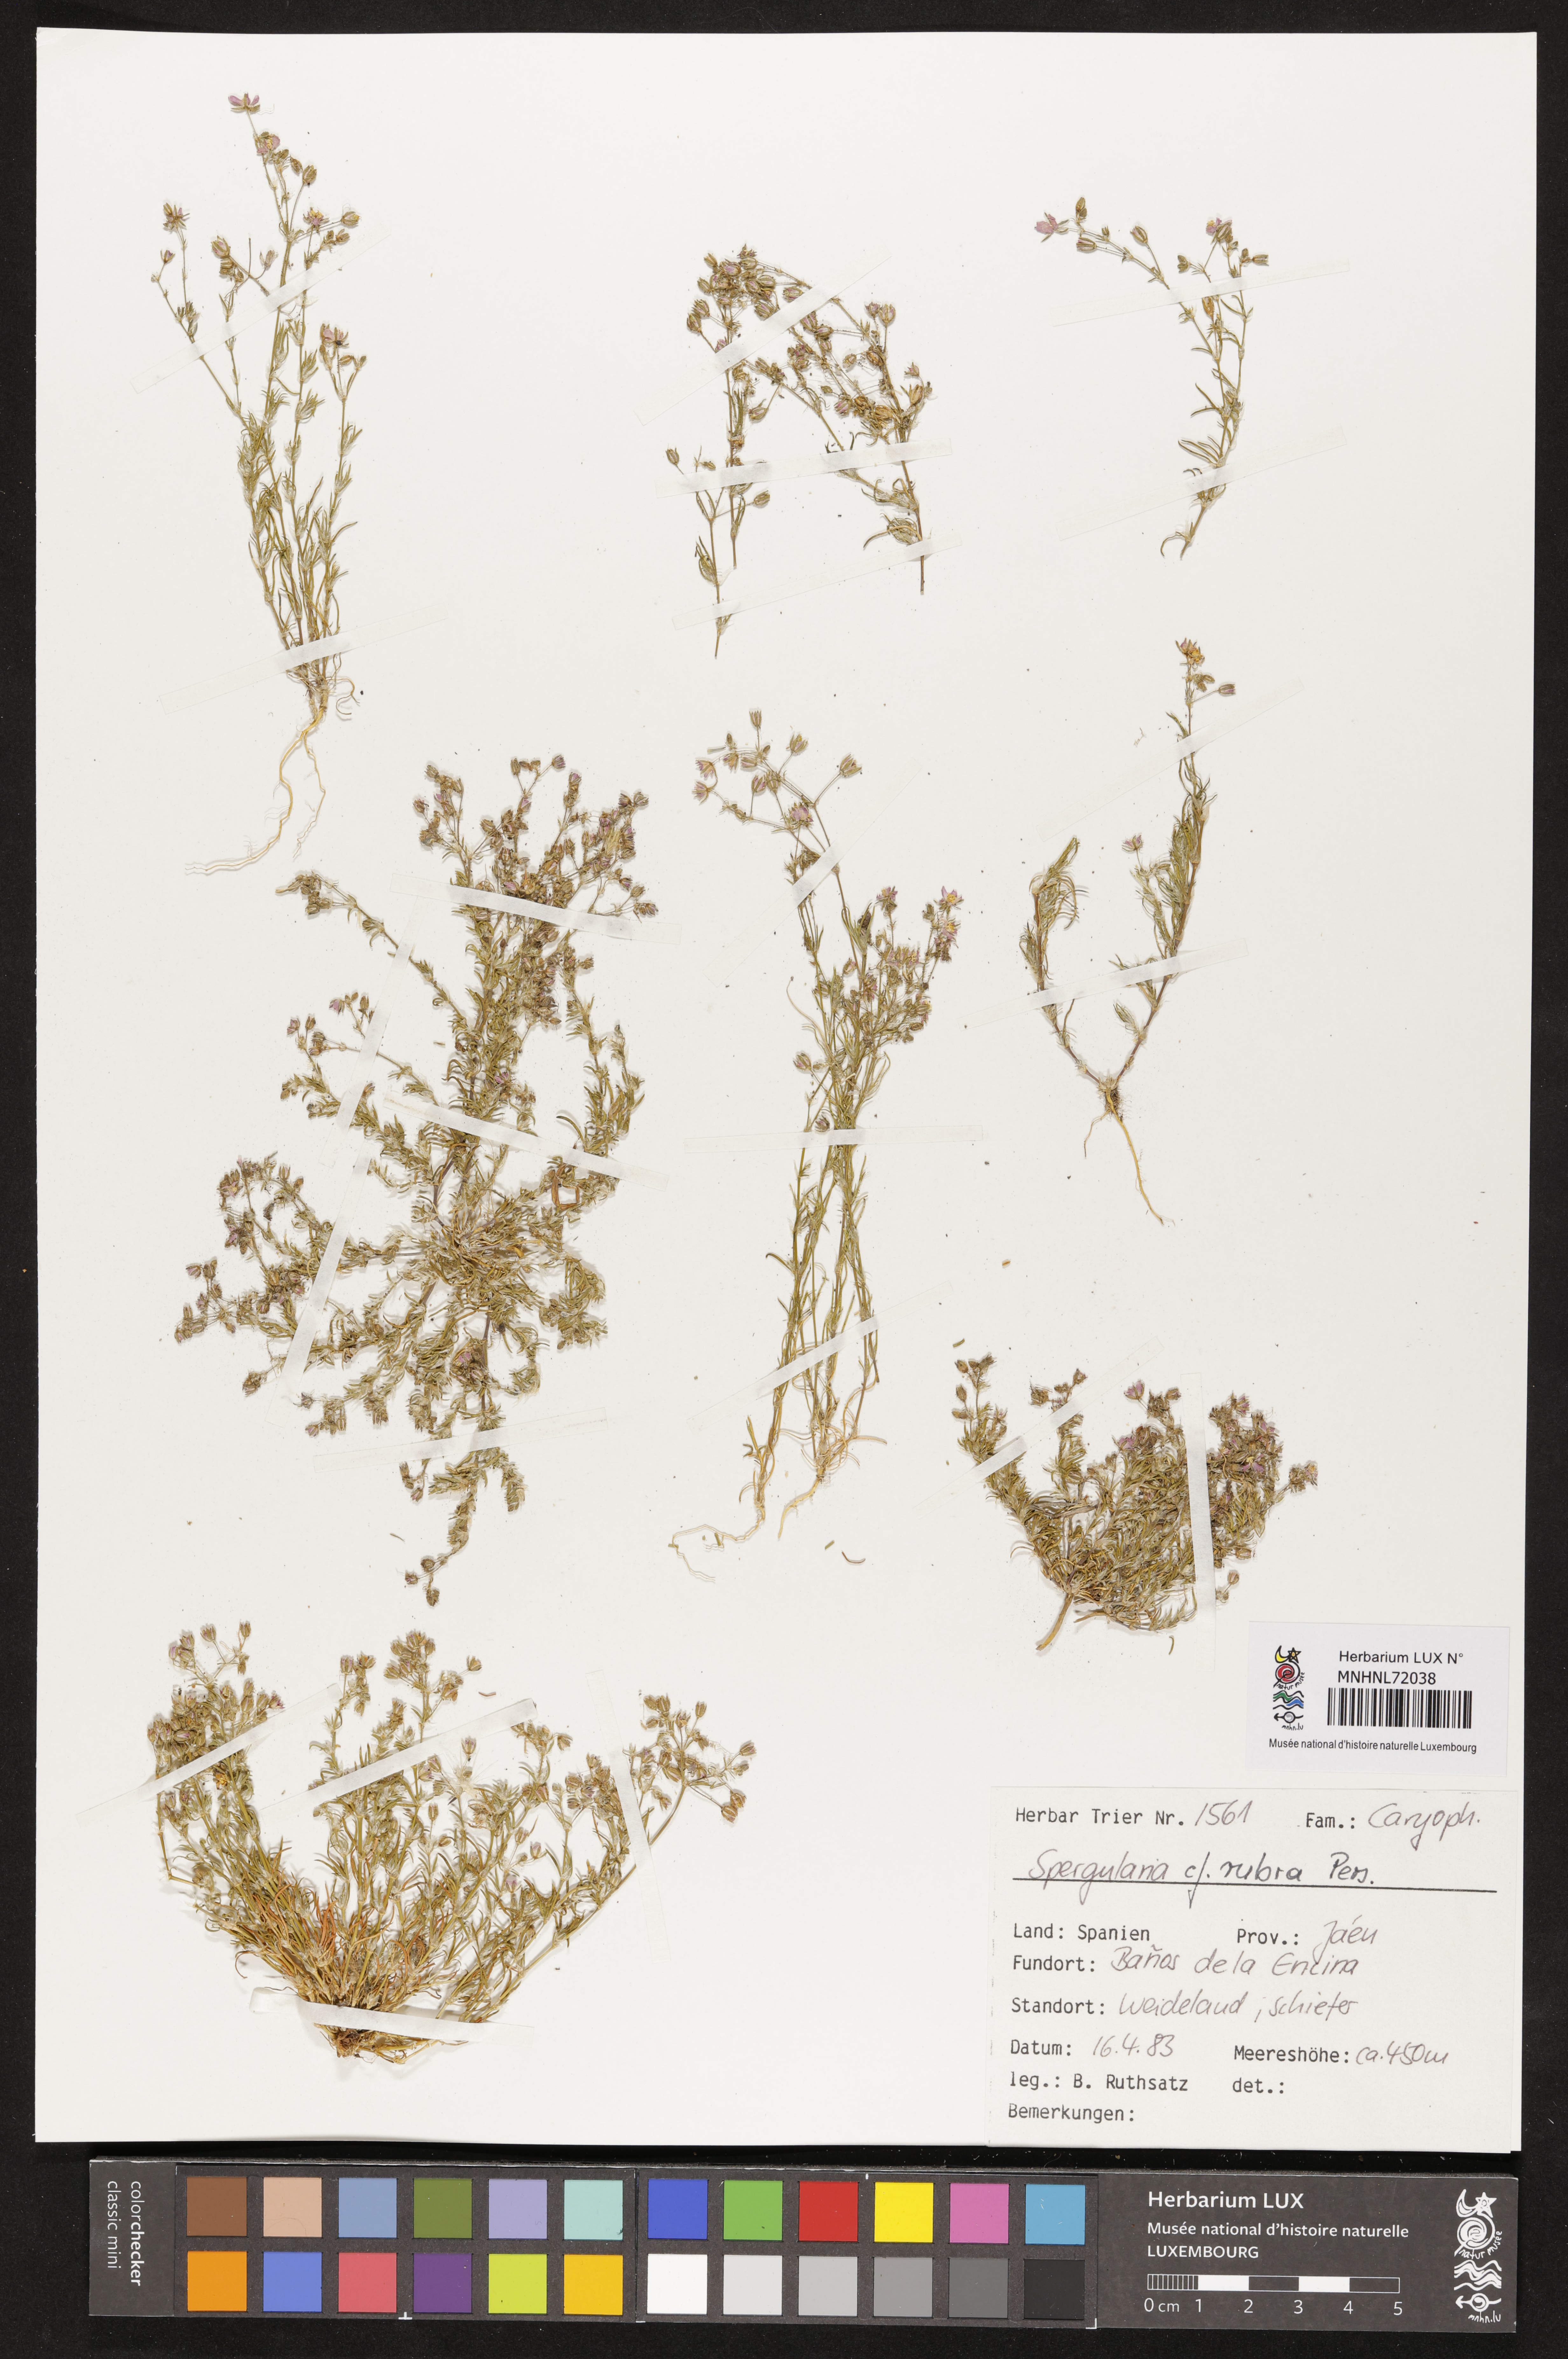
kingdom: Plantae
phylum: Tracheophyta
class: Magnoliopsida
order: Caryophyllales
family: Caryophyllaceae
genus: Spergularia
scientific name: Spergularia rubra
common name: Red sand-spurrey
